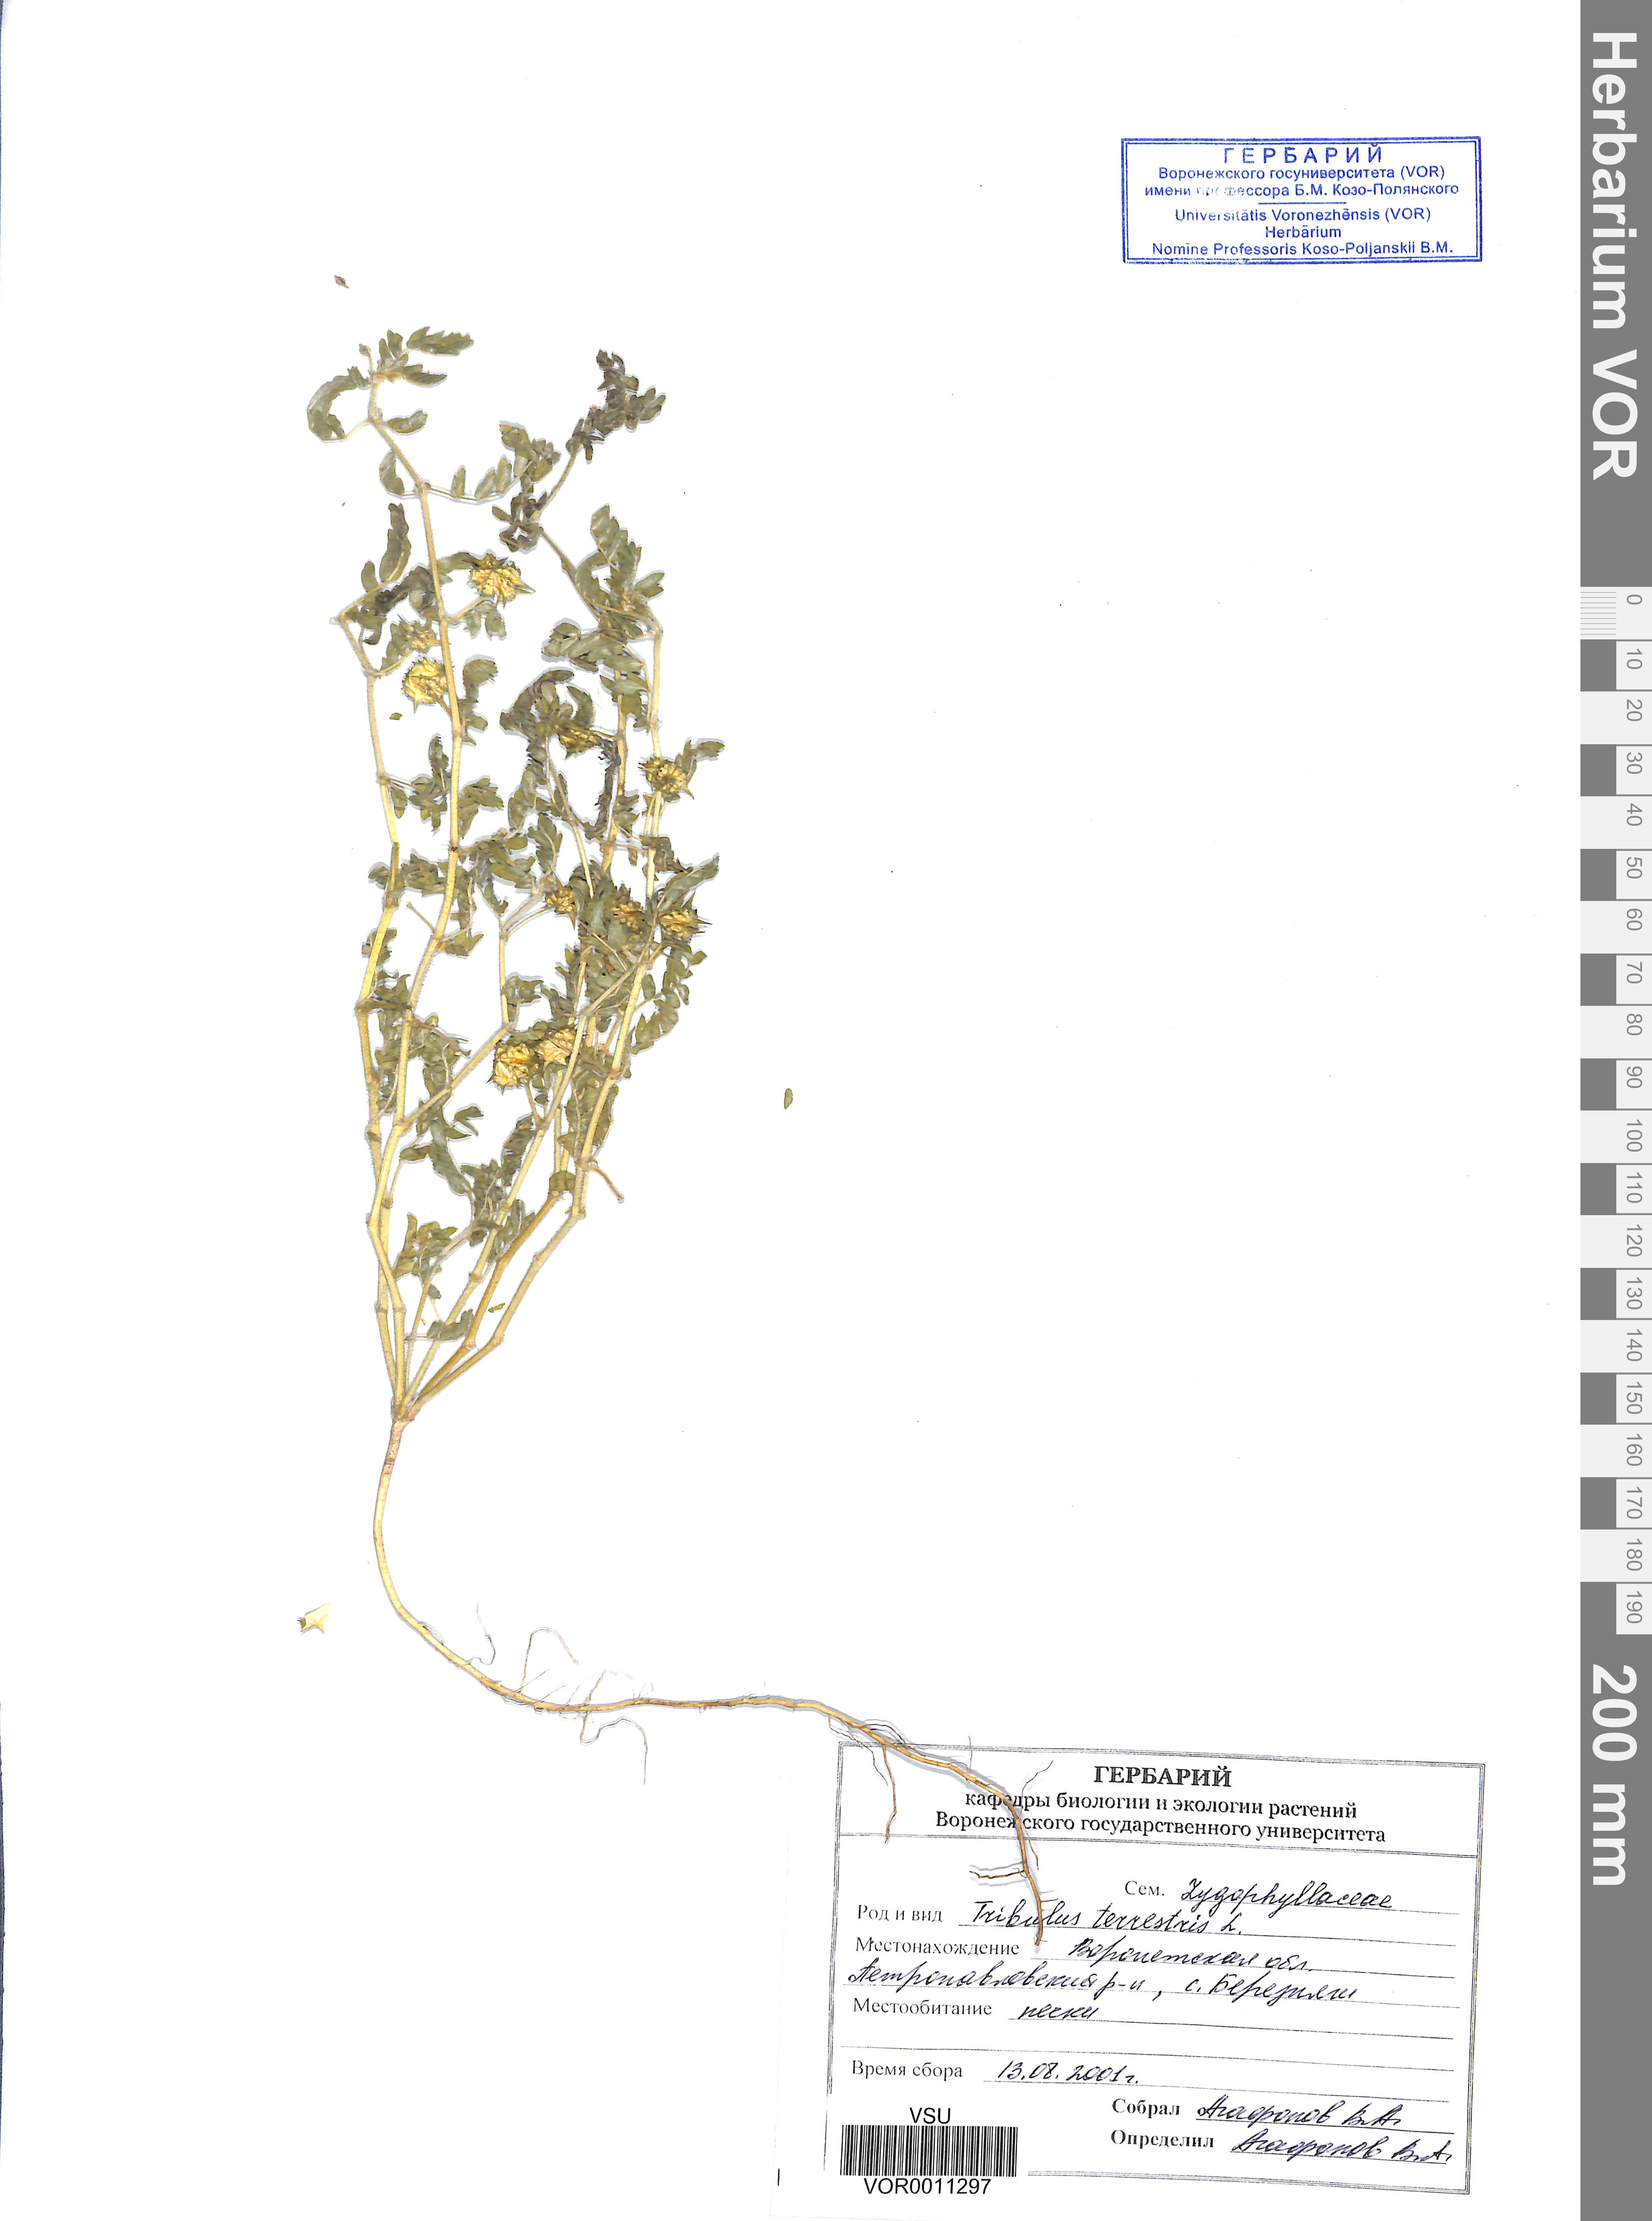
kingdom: Plantae
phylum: Tracheophyta
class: Magnoliopsida
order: Zygophyllales
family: Zygophyllaceae
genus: Tribulus
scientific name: Tribulus terrestris
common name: Puncturevine
